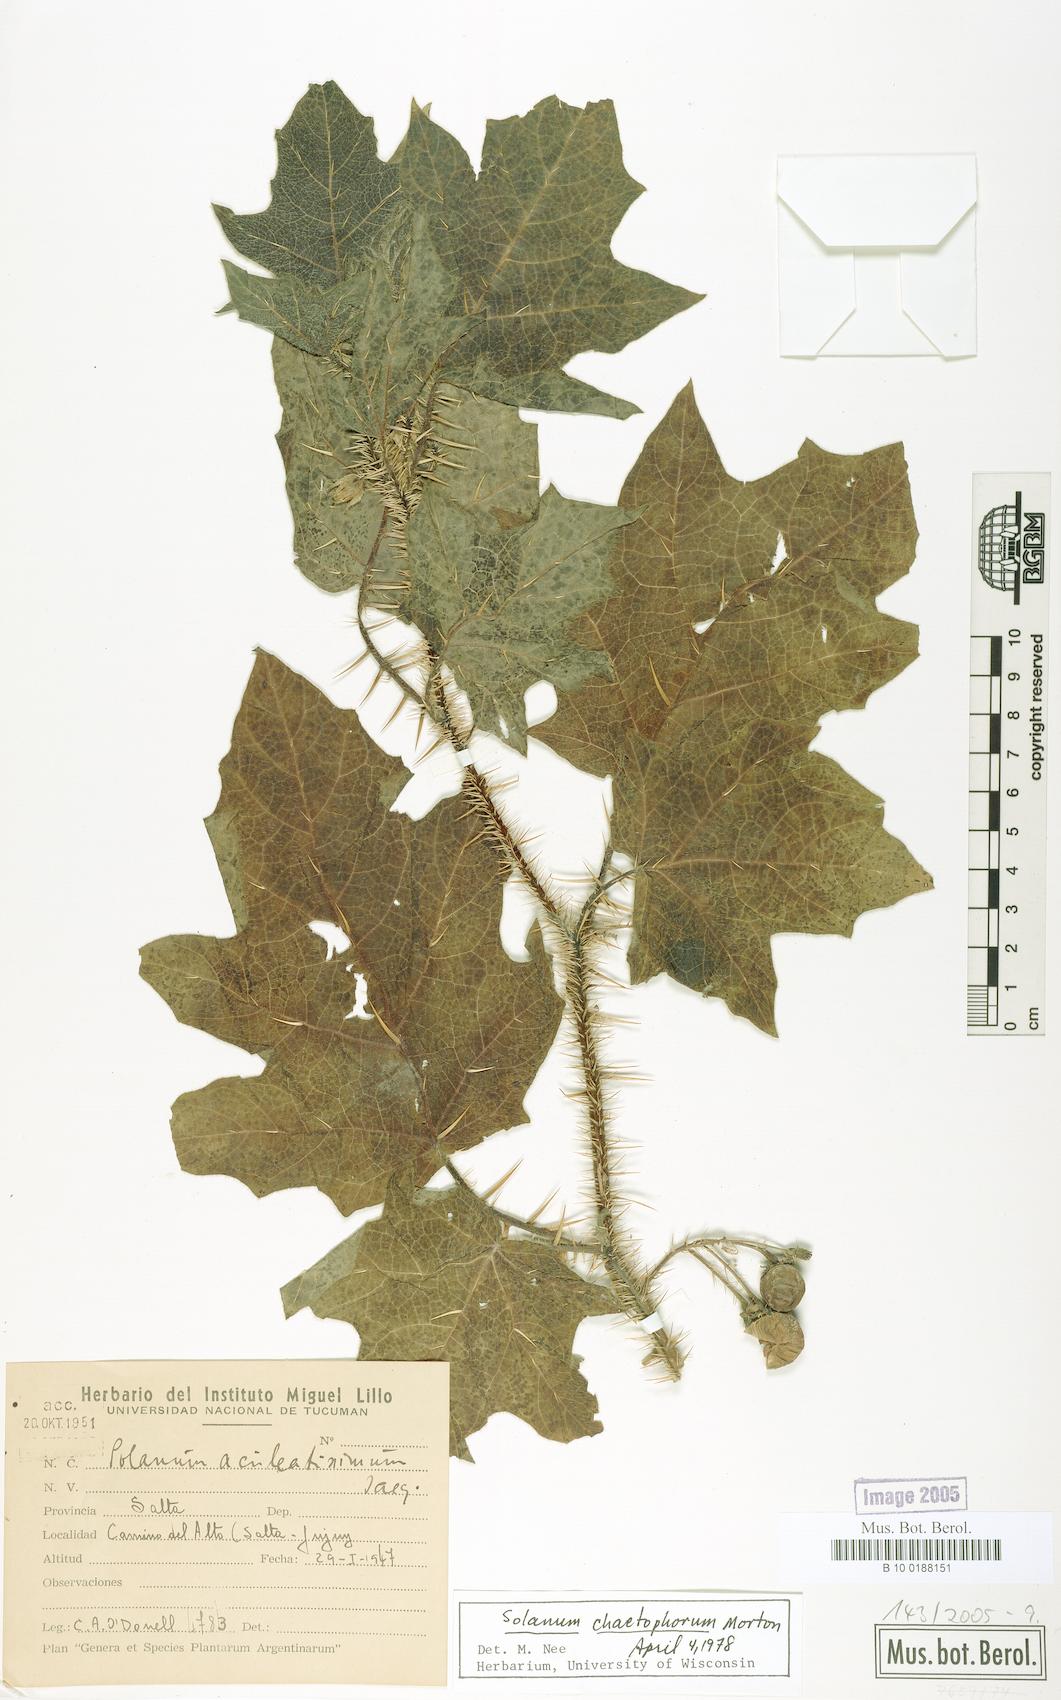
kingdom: Plantae
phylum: Tracheophyta
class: Magnoliopsida
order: Solanales
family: Solanaceae
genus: Solanum
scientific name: Solanum tenuispinum
